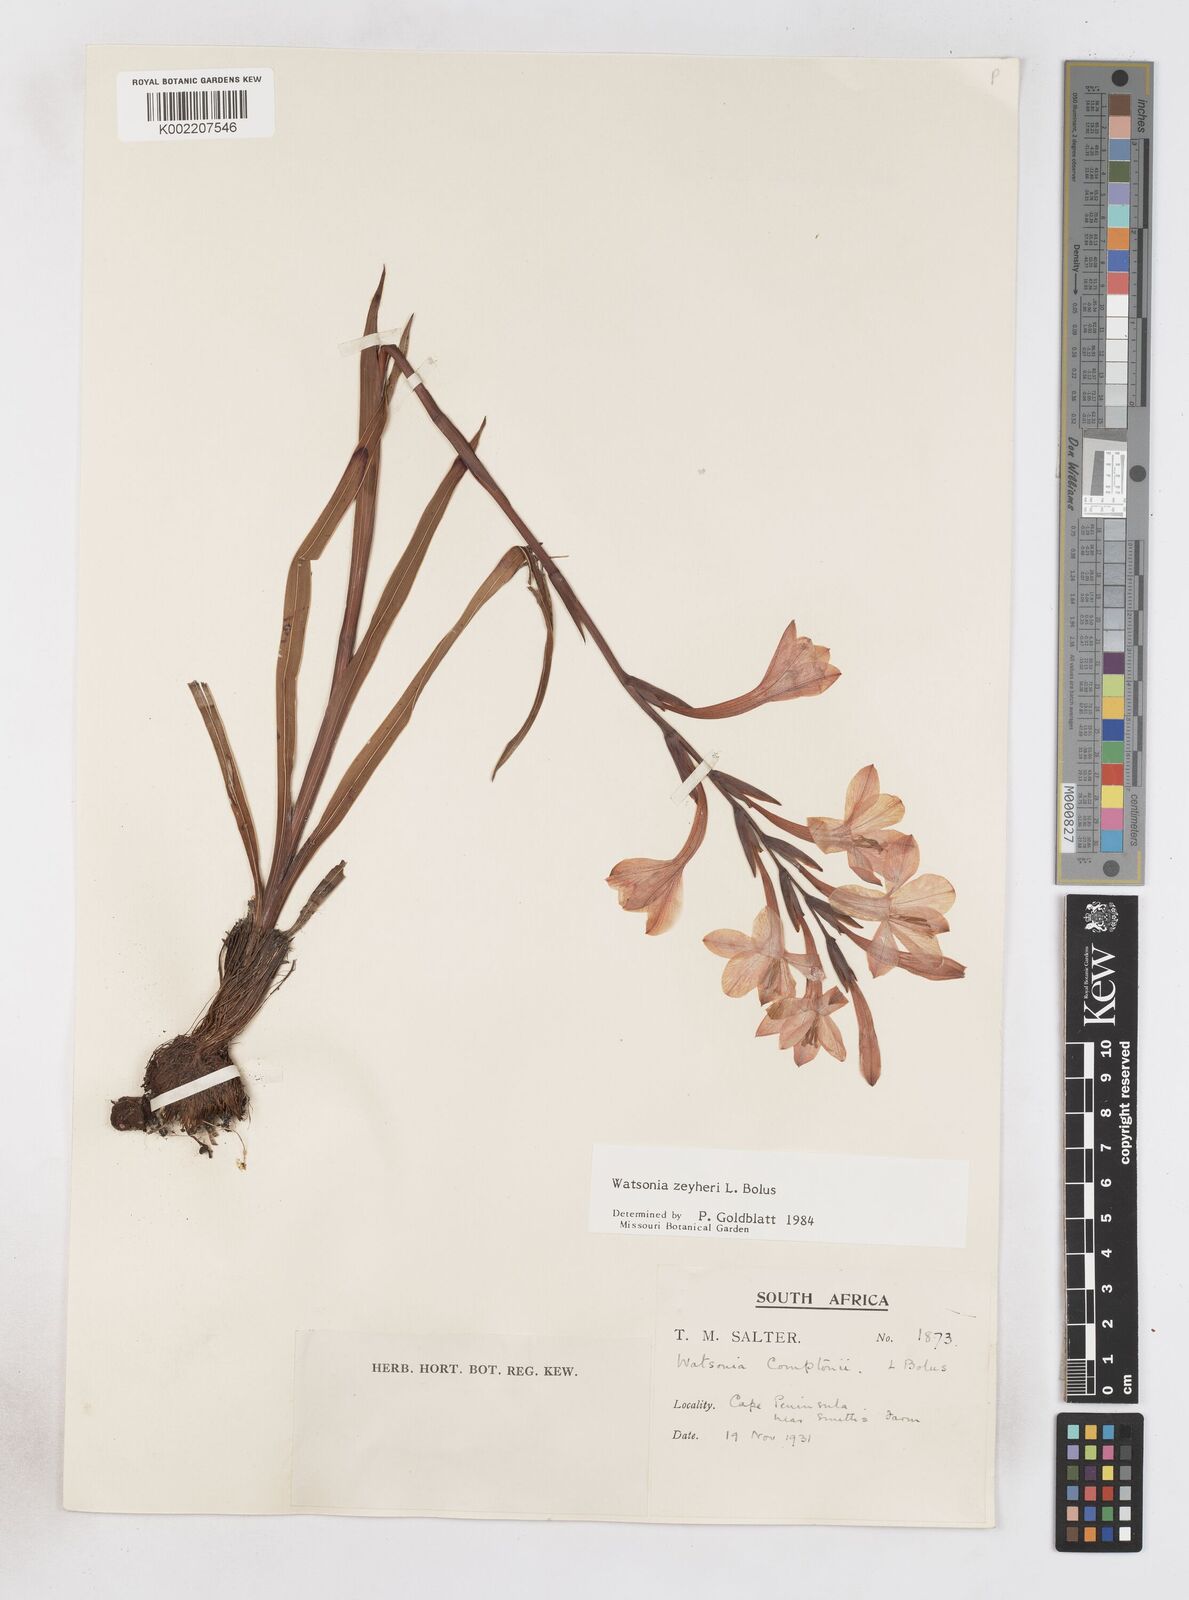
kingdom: Plantae
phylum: Tracheophyta
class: Liliopsida
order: Asparagales
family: Iridaceae
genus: Watsonia
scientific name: Watsonia zeyheri
